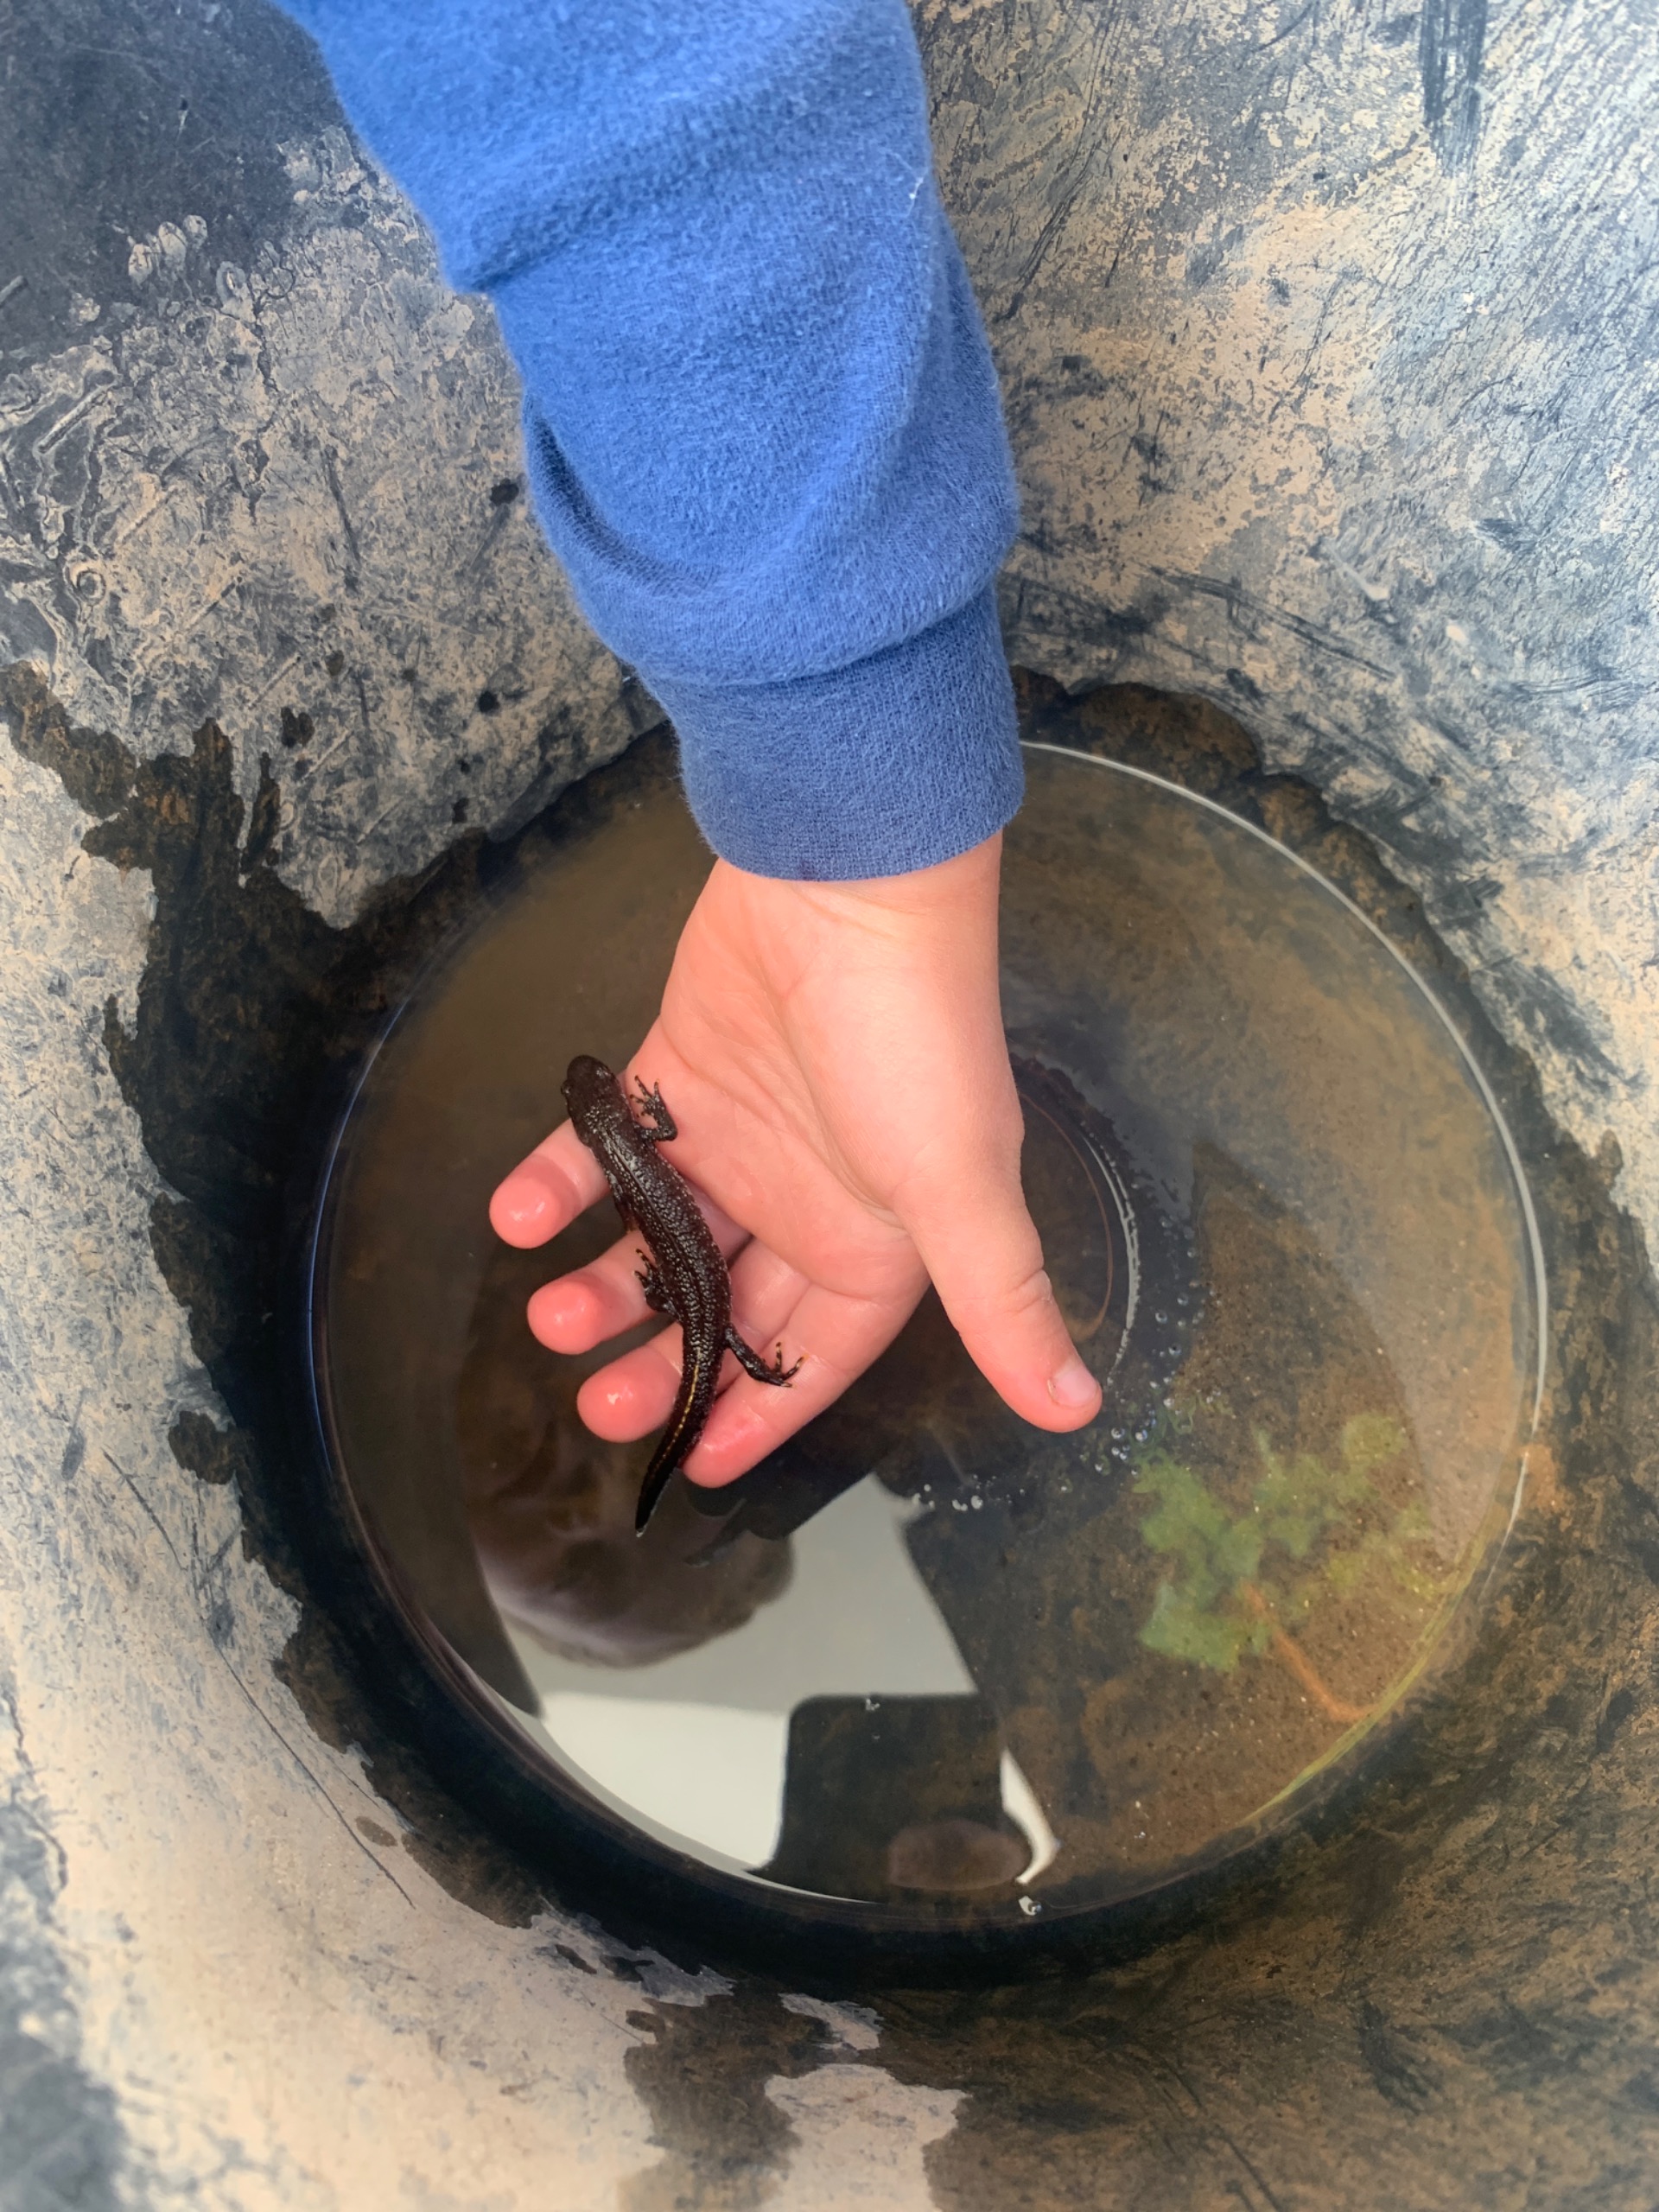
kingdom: Animalia
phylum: Chordata
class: Amphibia
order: Caudata
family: Salamandridae
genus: Triturus
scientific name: Triturus cristatus
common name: Stor vandsalamander
